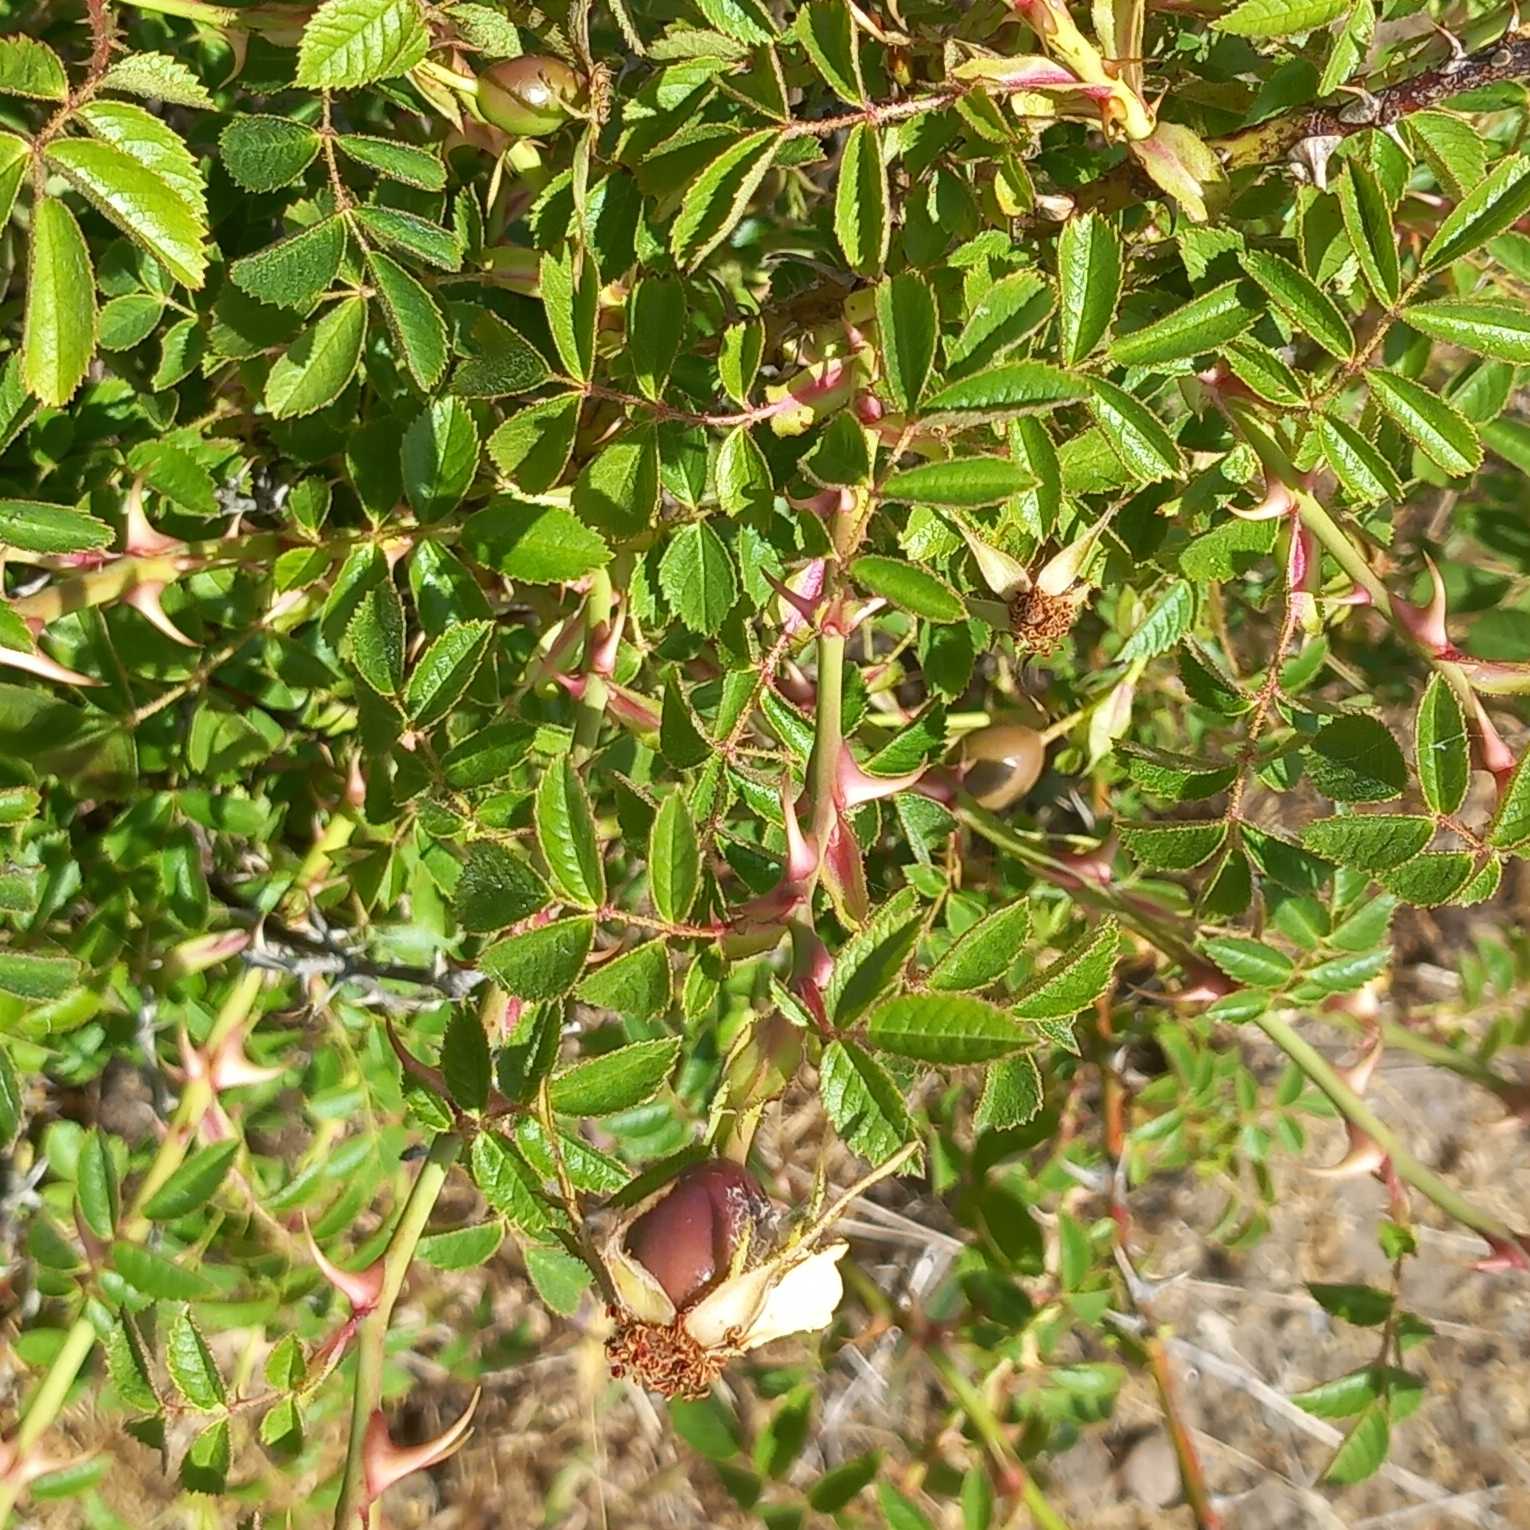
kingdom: Plantae
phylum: Tracheophyta
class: Magnoliopsida
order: Rosales
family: Rosaceae
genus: Rosa
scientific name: Rosa rubiginosa
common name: Æble-rose
